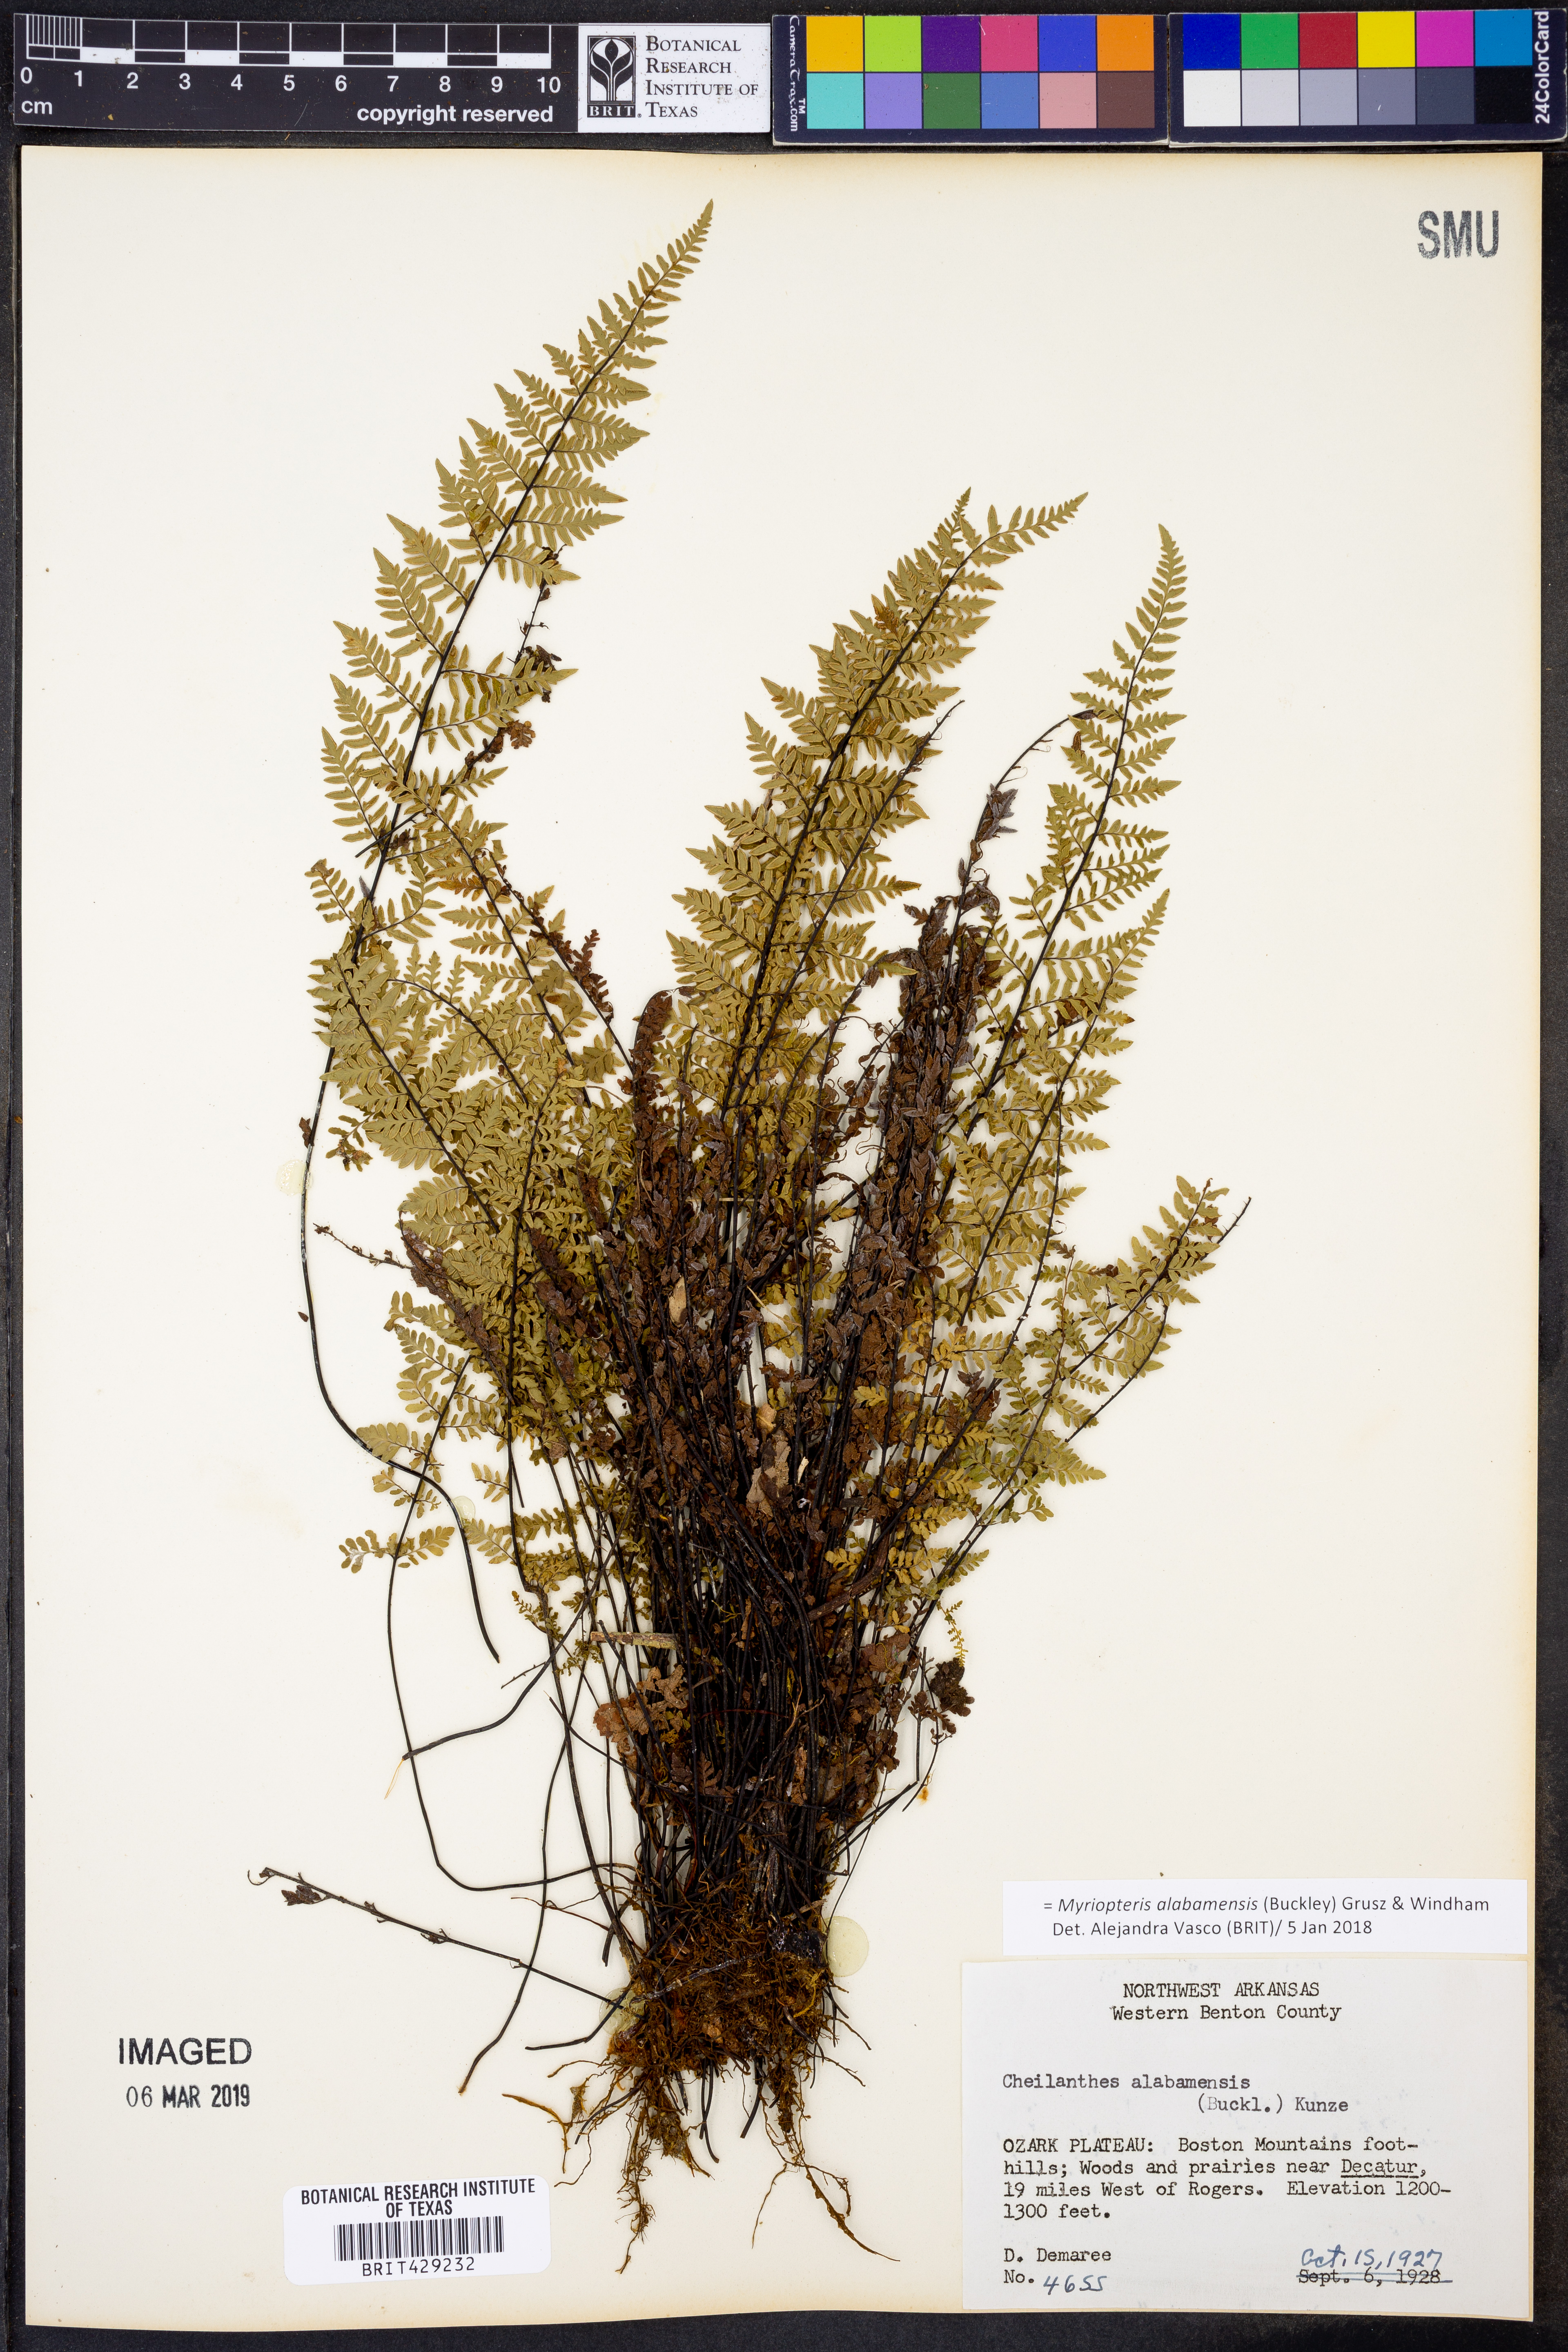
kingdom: Plantae
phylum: Tracheophyta
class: Polypodiopsida
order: Polypodiales
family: Pteridaceae
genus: Myriopteris
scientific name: Myriopteris alabamensis
